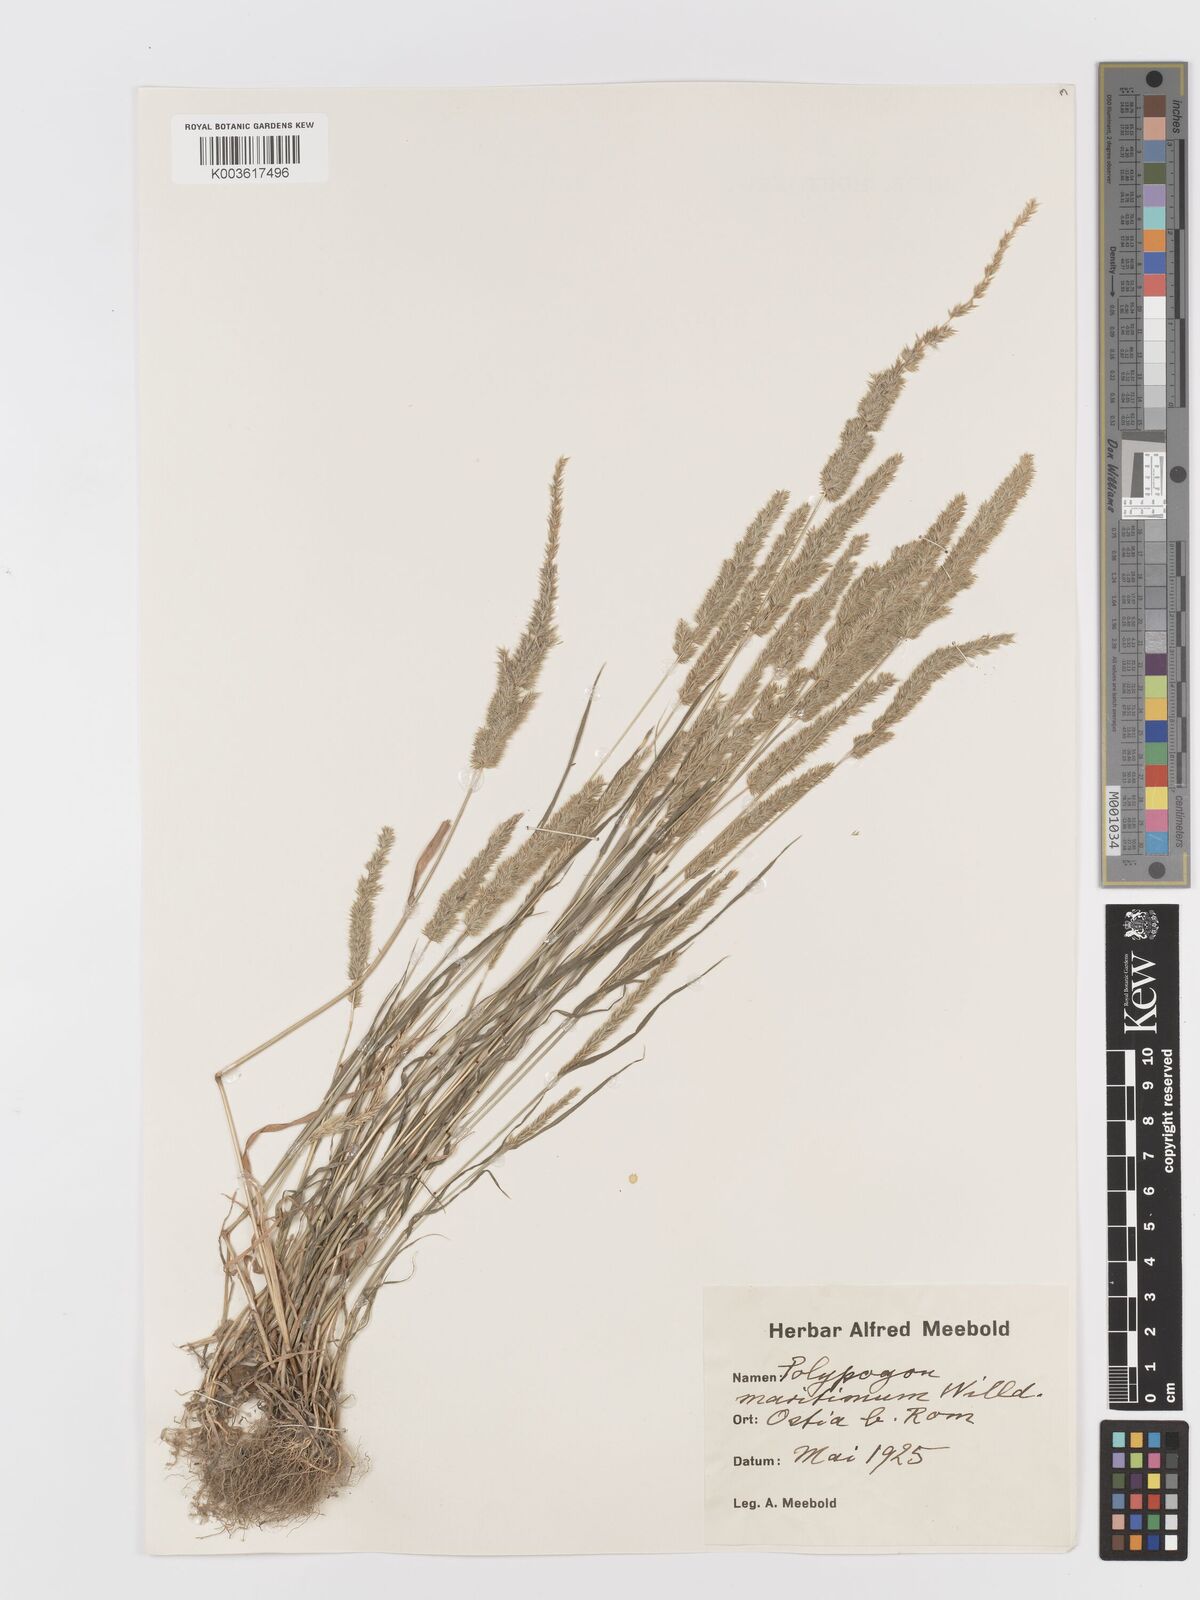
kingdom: Plantae
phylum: Tracheophyta
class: Liliopsida
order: Poales
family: Poaceae
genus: Koeleria
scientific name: Koeleria
